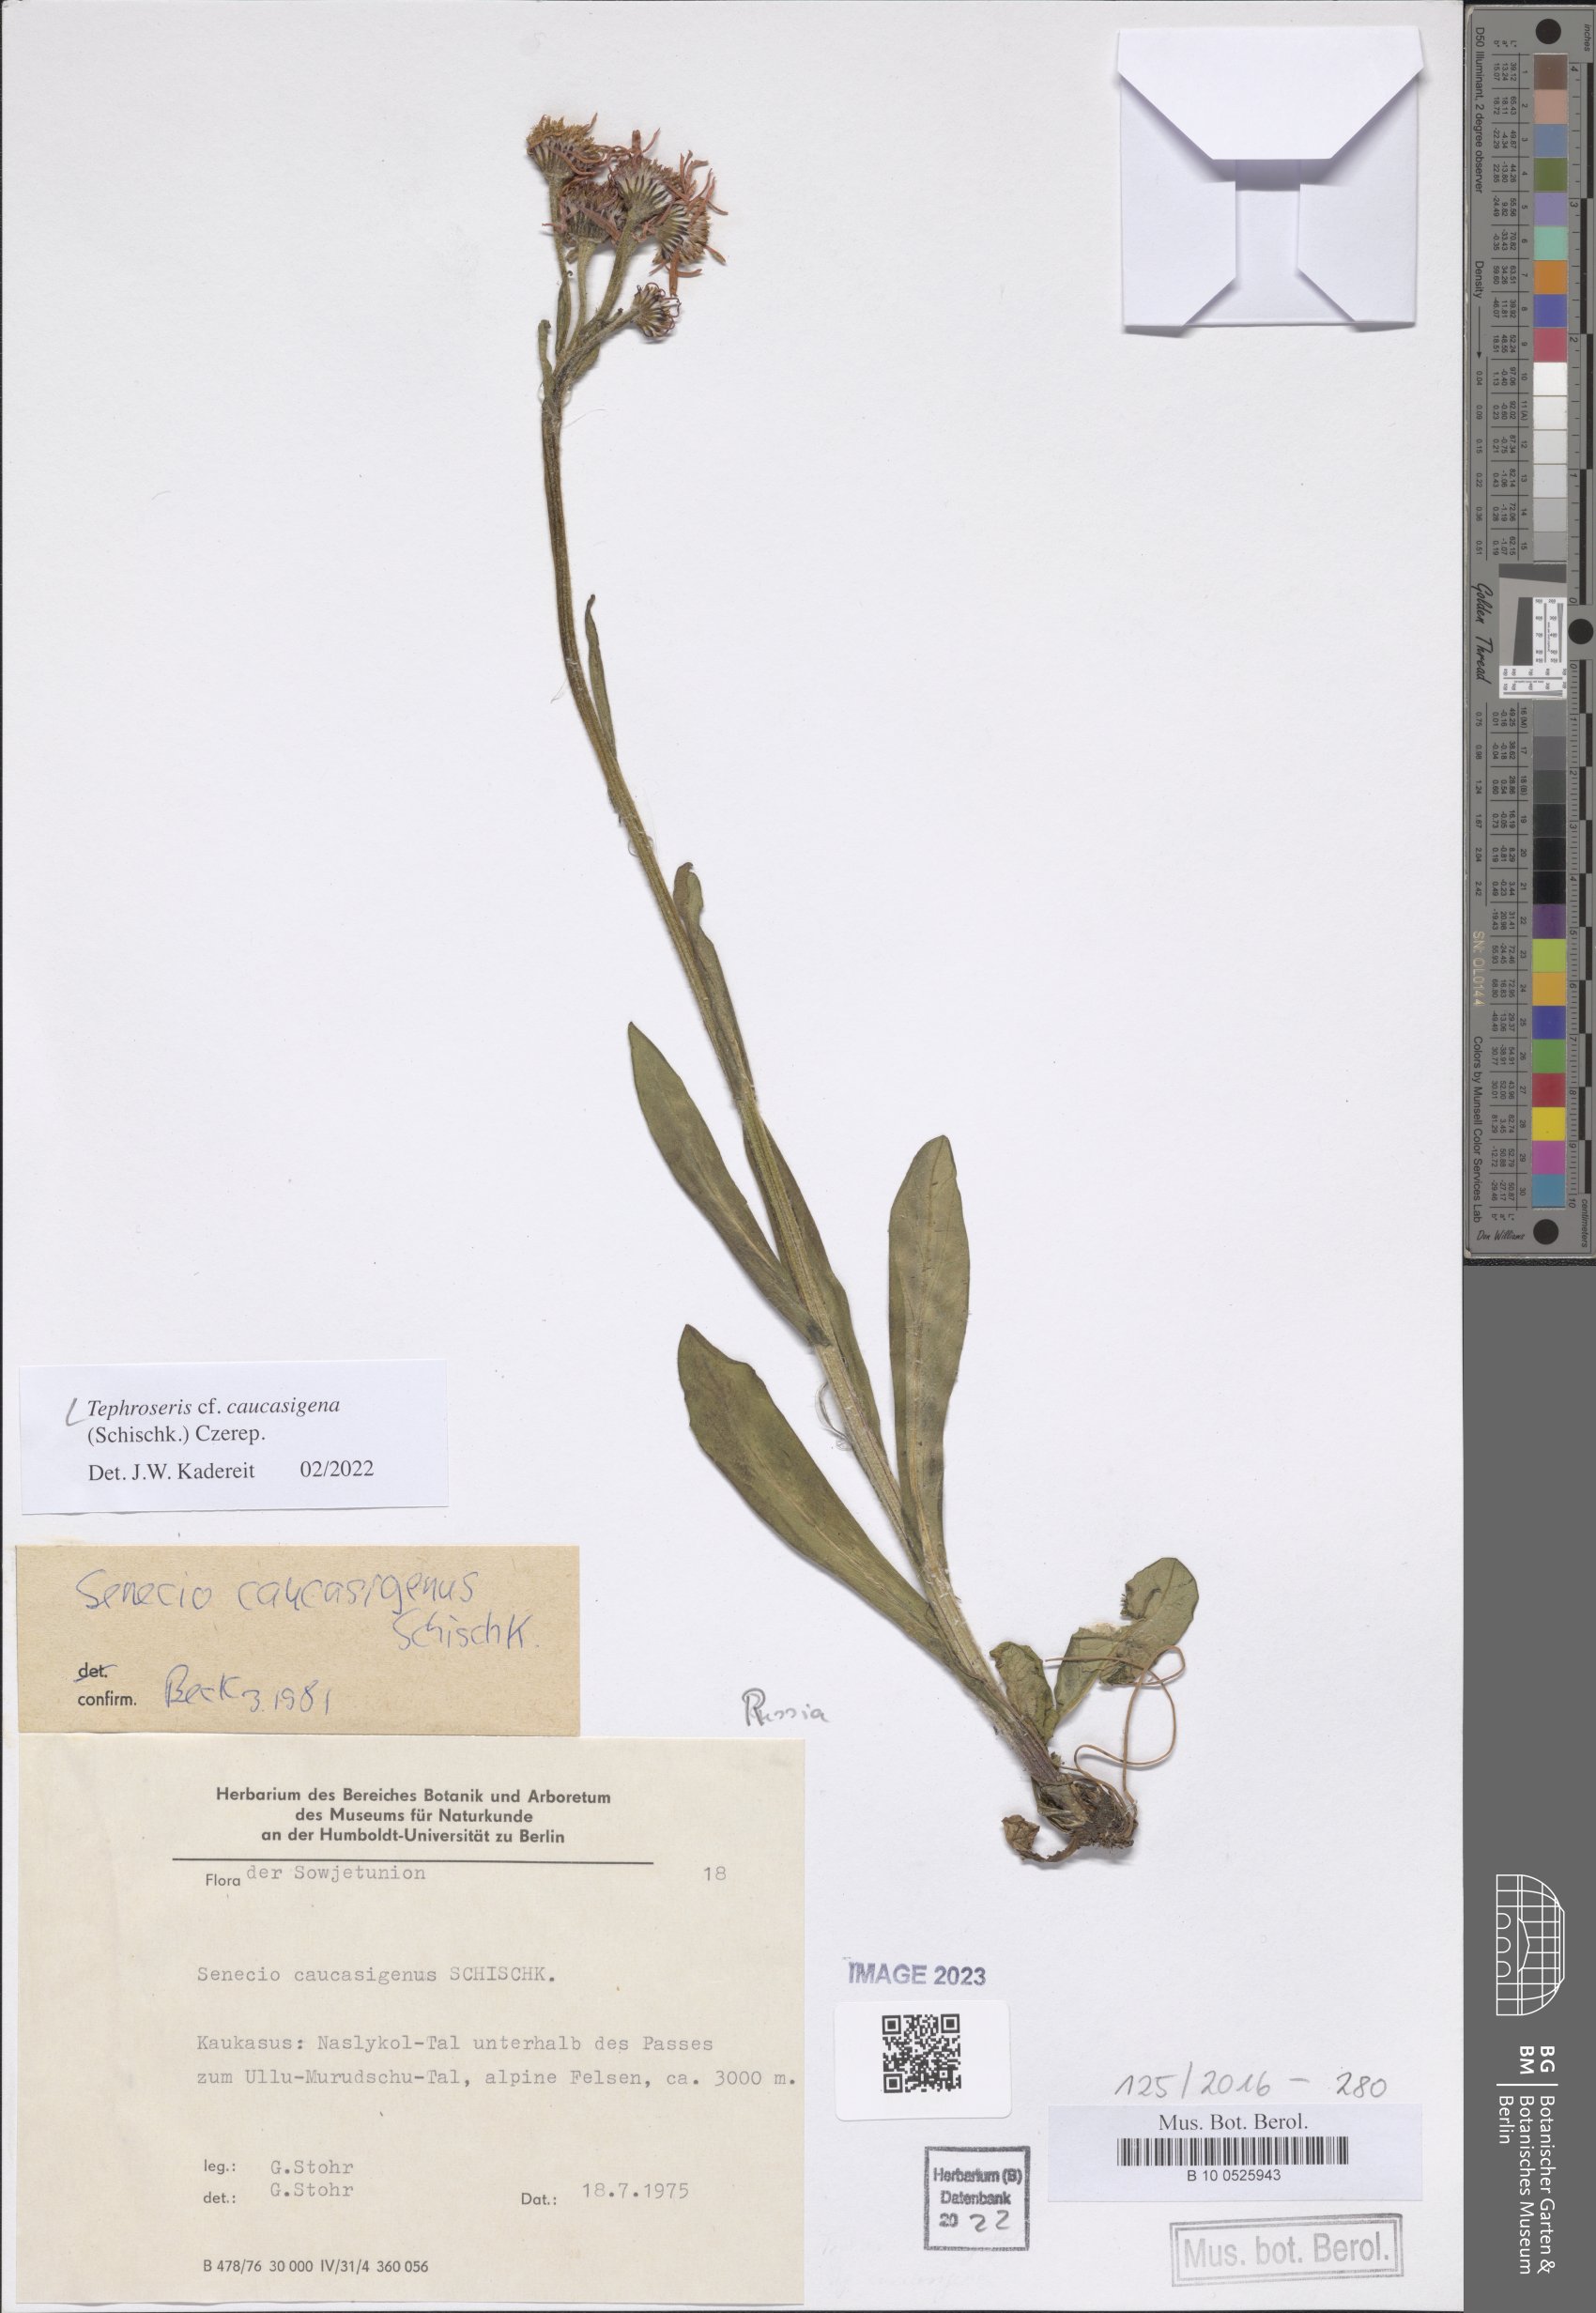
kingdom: Plantae
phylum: Tracheophyta
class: Magnoliopsida
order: Asterales
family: Asteraceae
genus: Tephroseris
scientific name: Tephroseris integrifolia
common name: Field fleawort
